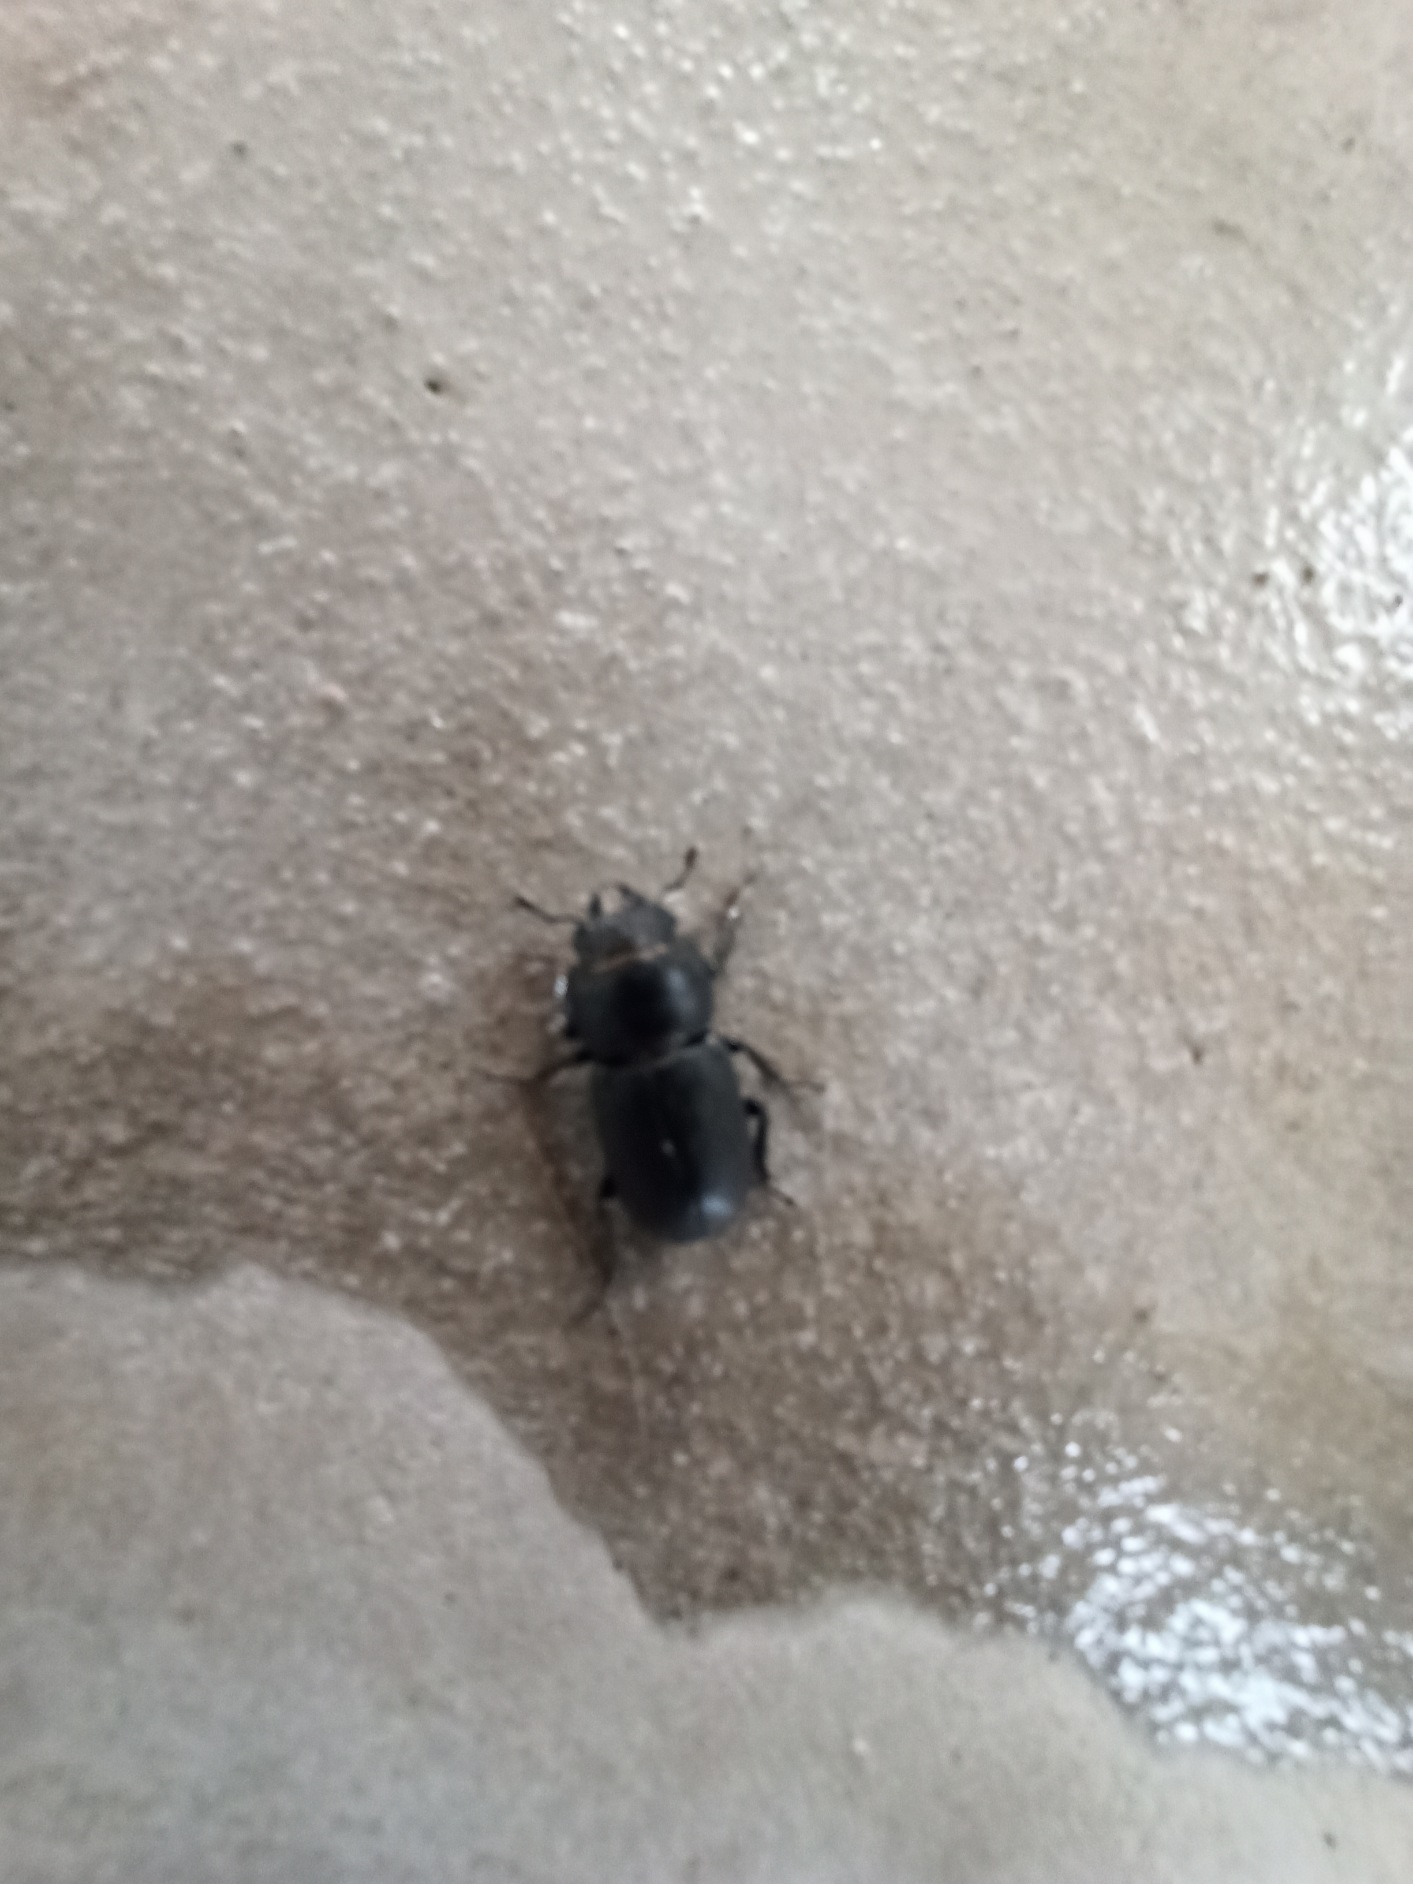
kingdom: Animalia
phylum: Arthropoda
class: Insecta
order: Coleoptera
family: Lucanidae
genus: Dorcus
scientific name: Dorcus parallelipipedus
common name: Bøghjort
